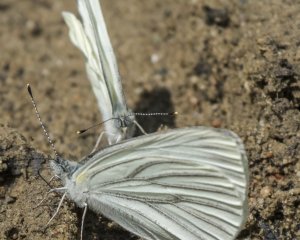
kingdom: Animalia
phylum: Arthropoda
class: Insecta
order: Lepidoptera
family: Pieridae
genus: Pieris
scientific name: Pieris oleracea
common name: Mustard White
